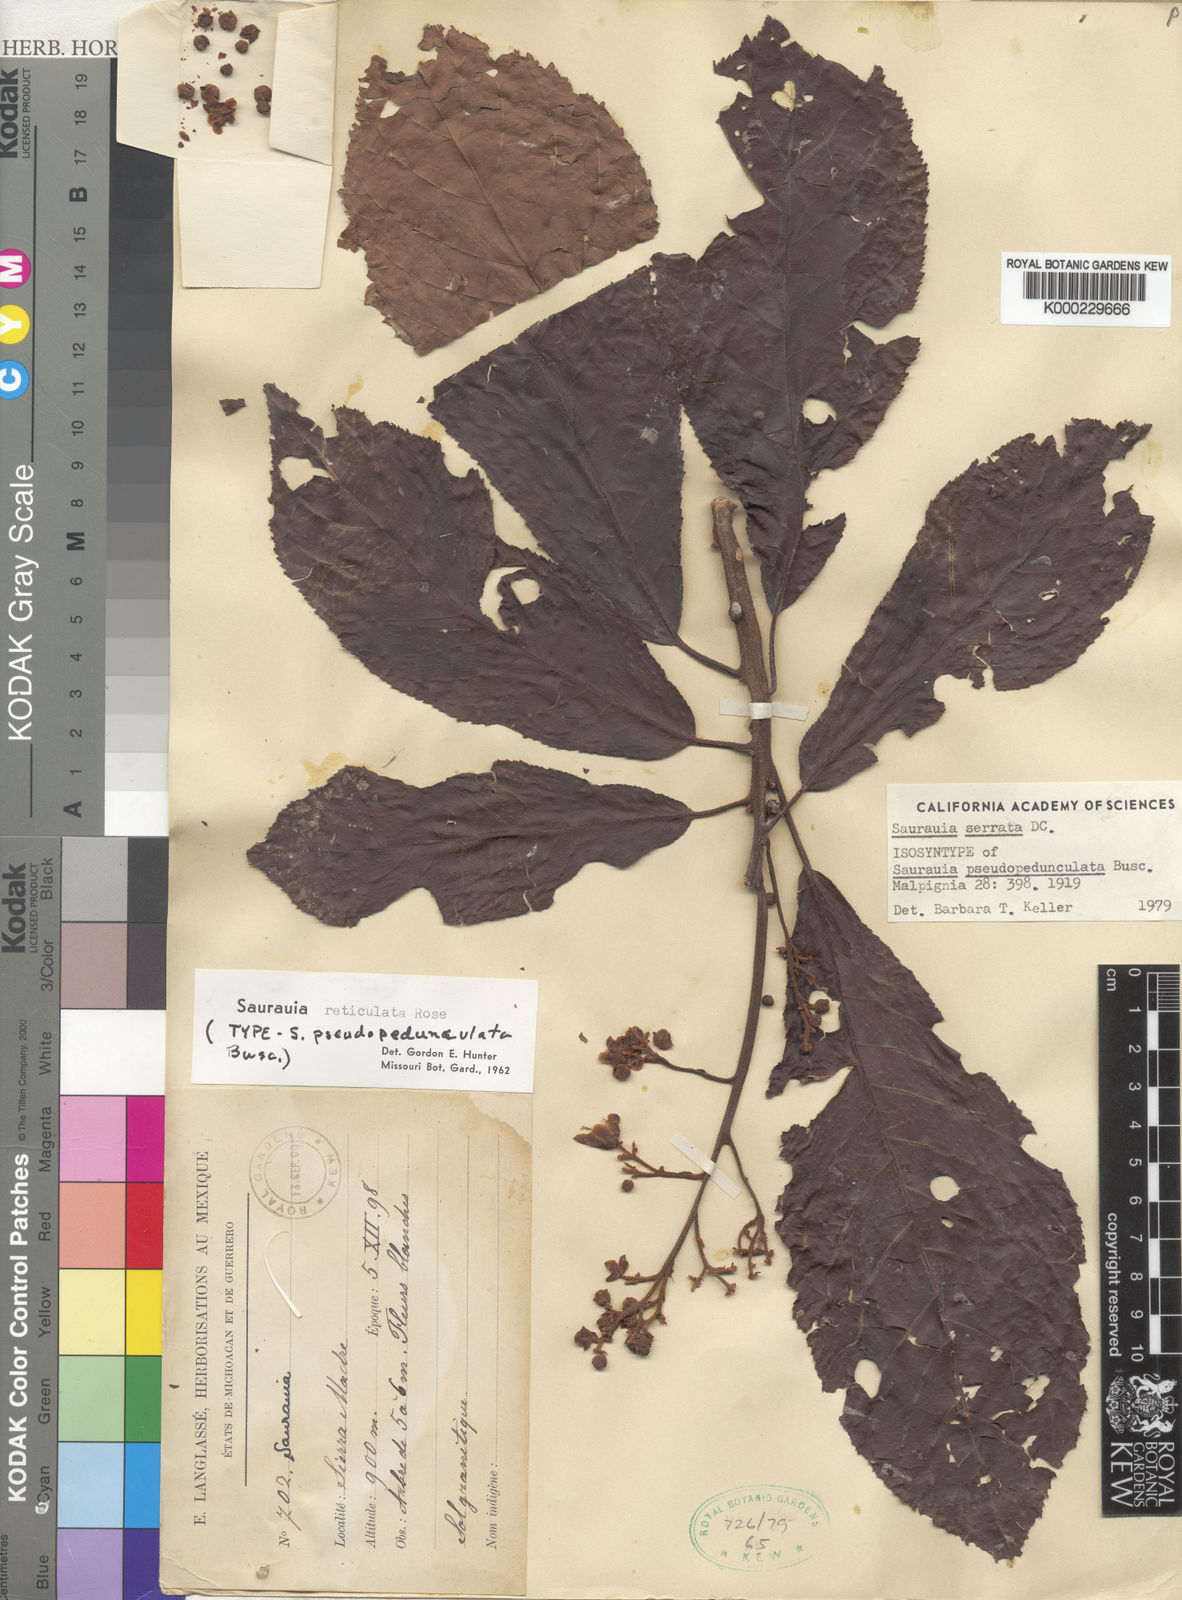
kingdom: Plantae
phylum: Tracheophyta
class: Magnoliopsida
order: Ericales
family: Actinidiaceae
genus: Saurauia
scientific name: Saurauia serrata
